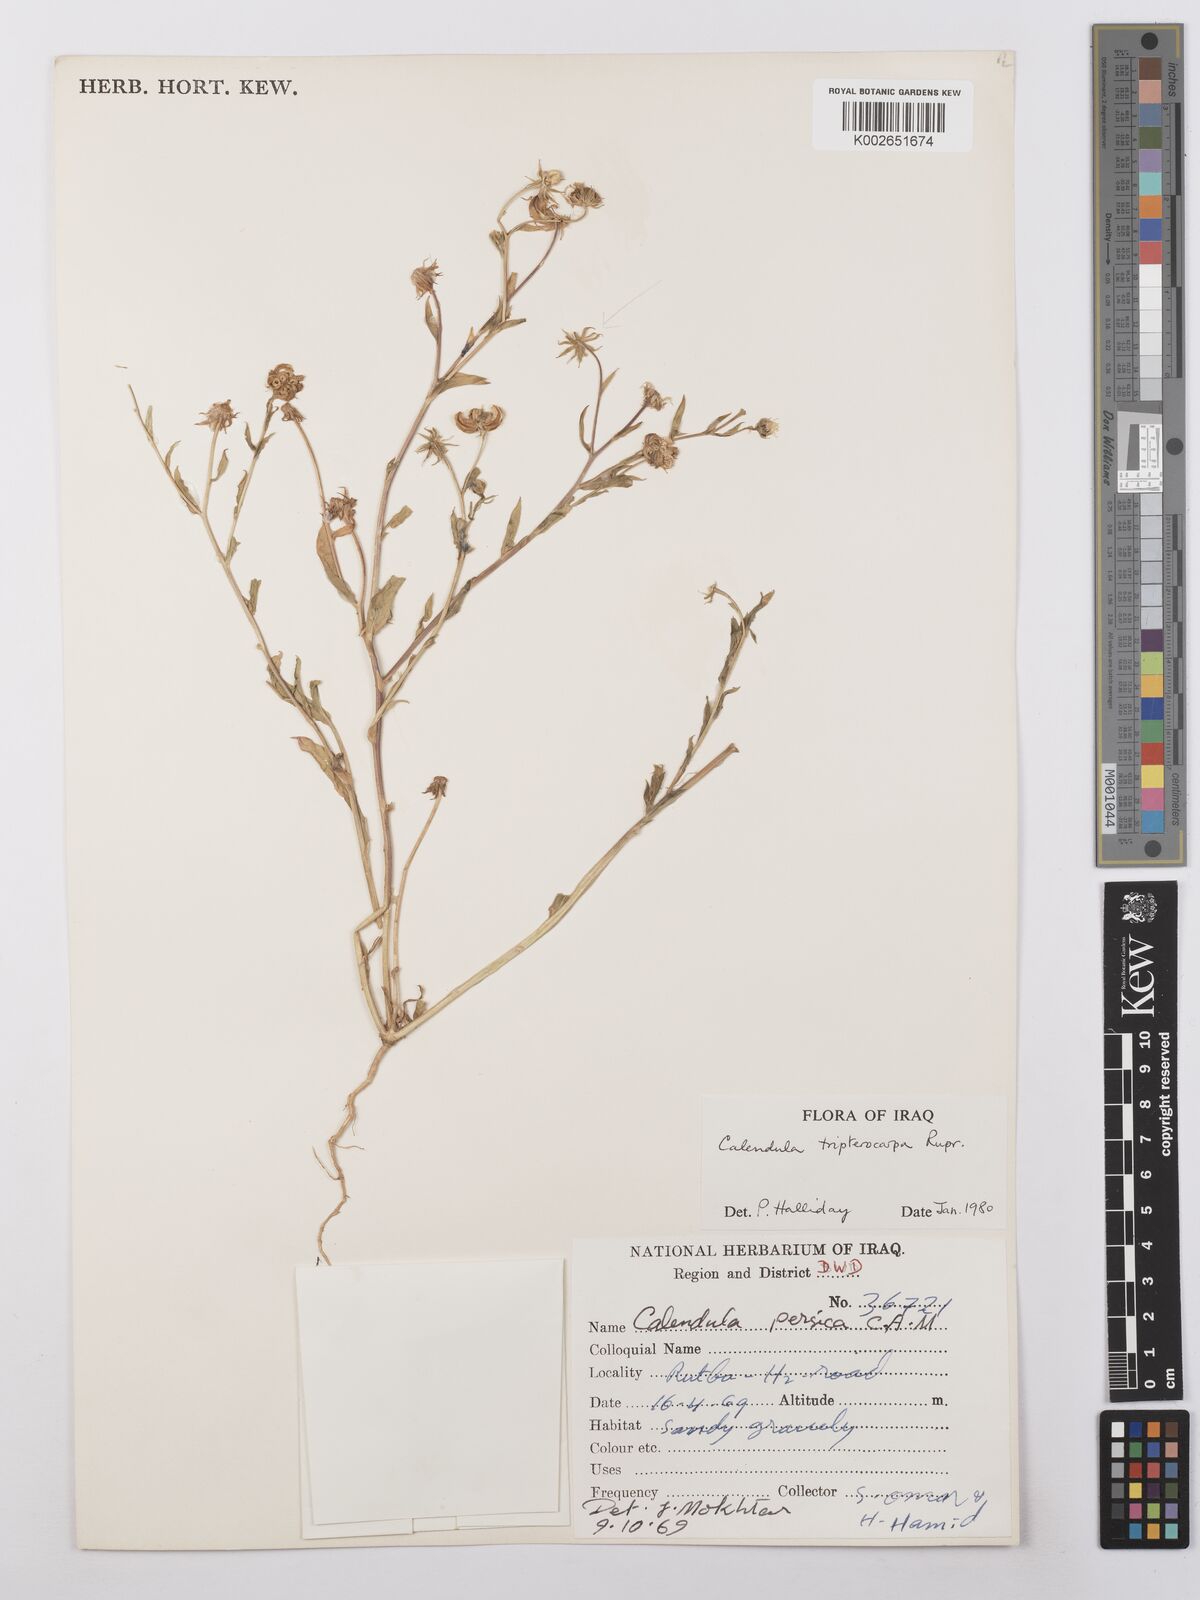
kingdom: Plantae
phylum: Tracheophyta
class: Magnoliopsida
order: Asterales
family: Asteraceae
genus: Calendula
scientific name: Calendula tripterocarpa
